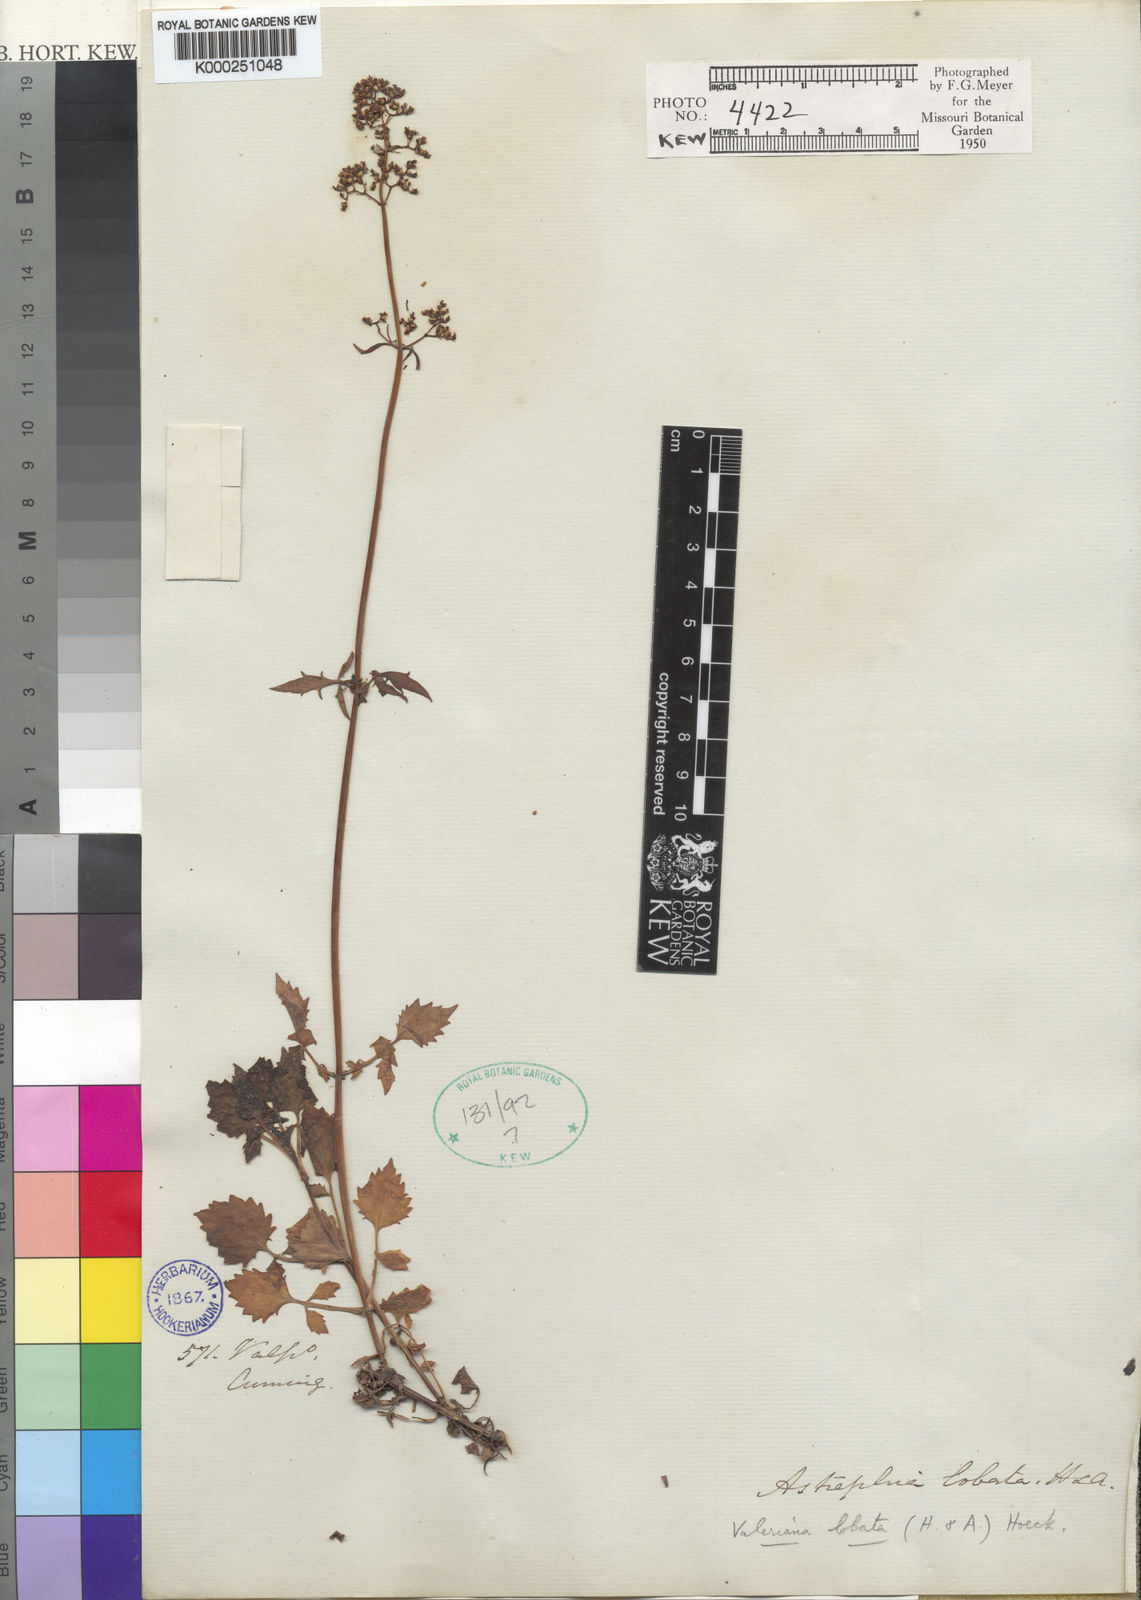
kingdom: Plantae
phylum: Tracheophyta
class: Magnoliopsida
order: Dipsacales
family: Caprifoliaceae
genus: Valeriana
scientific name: Valeriana crispa
